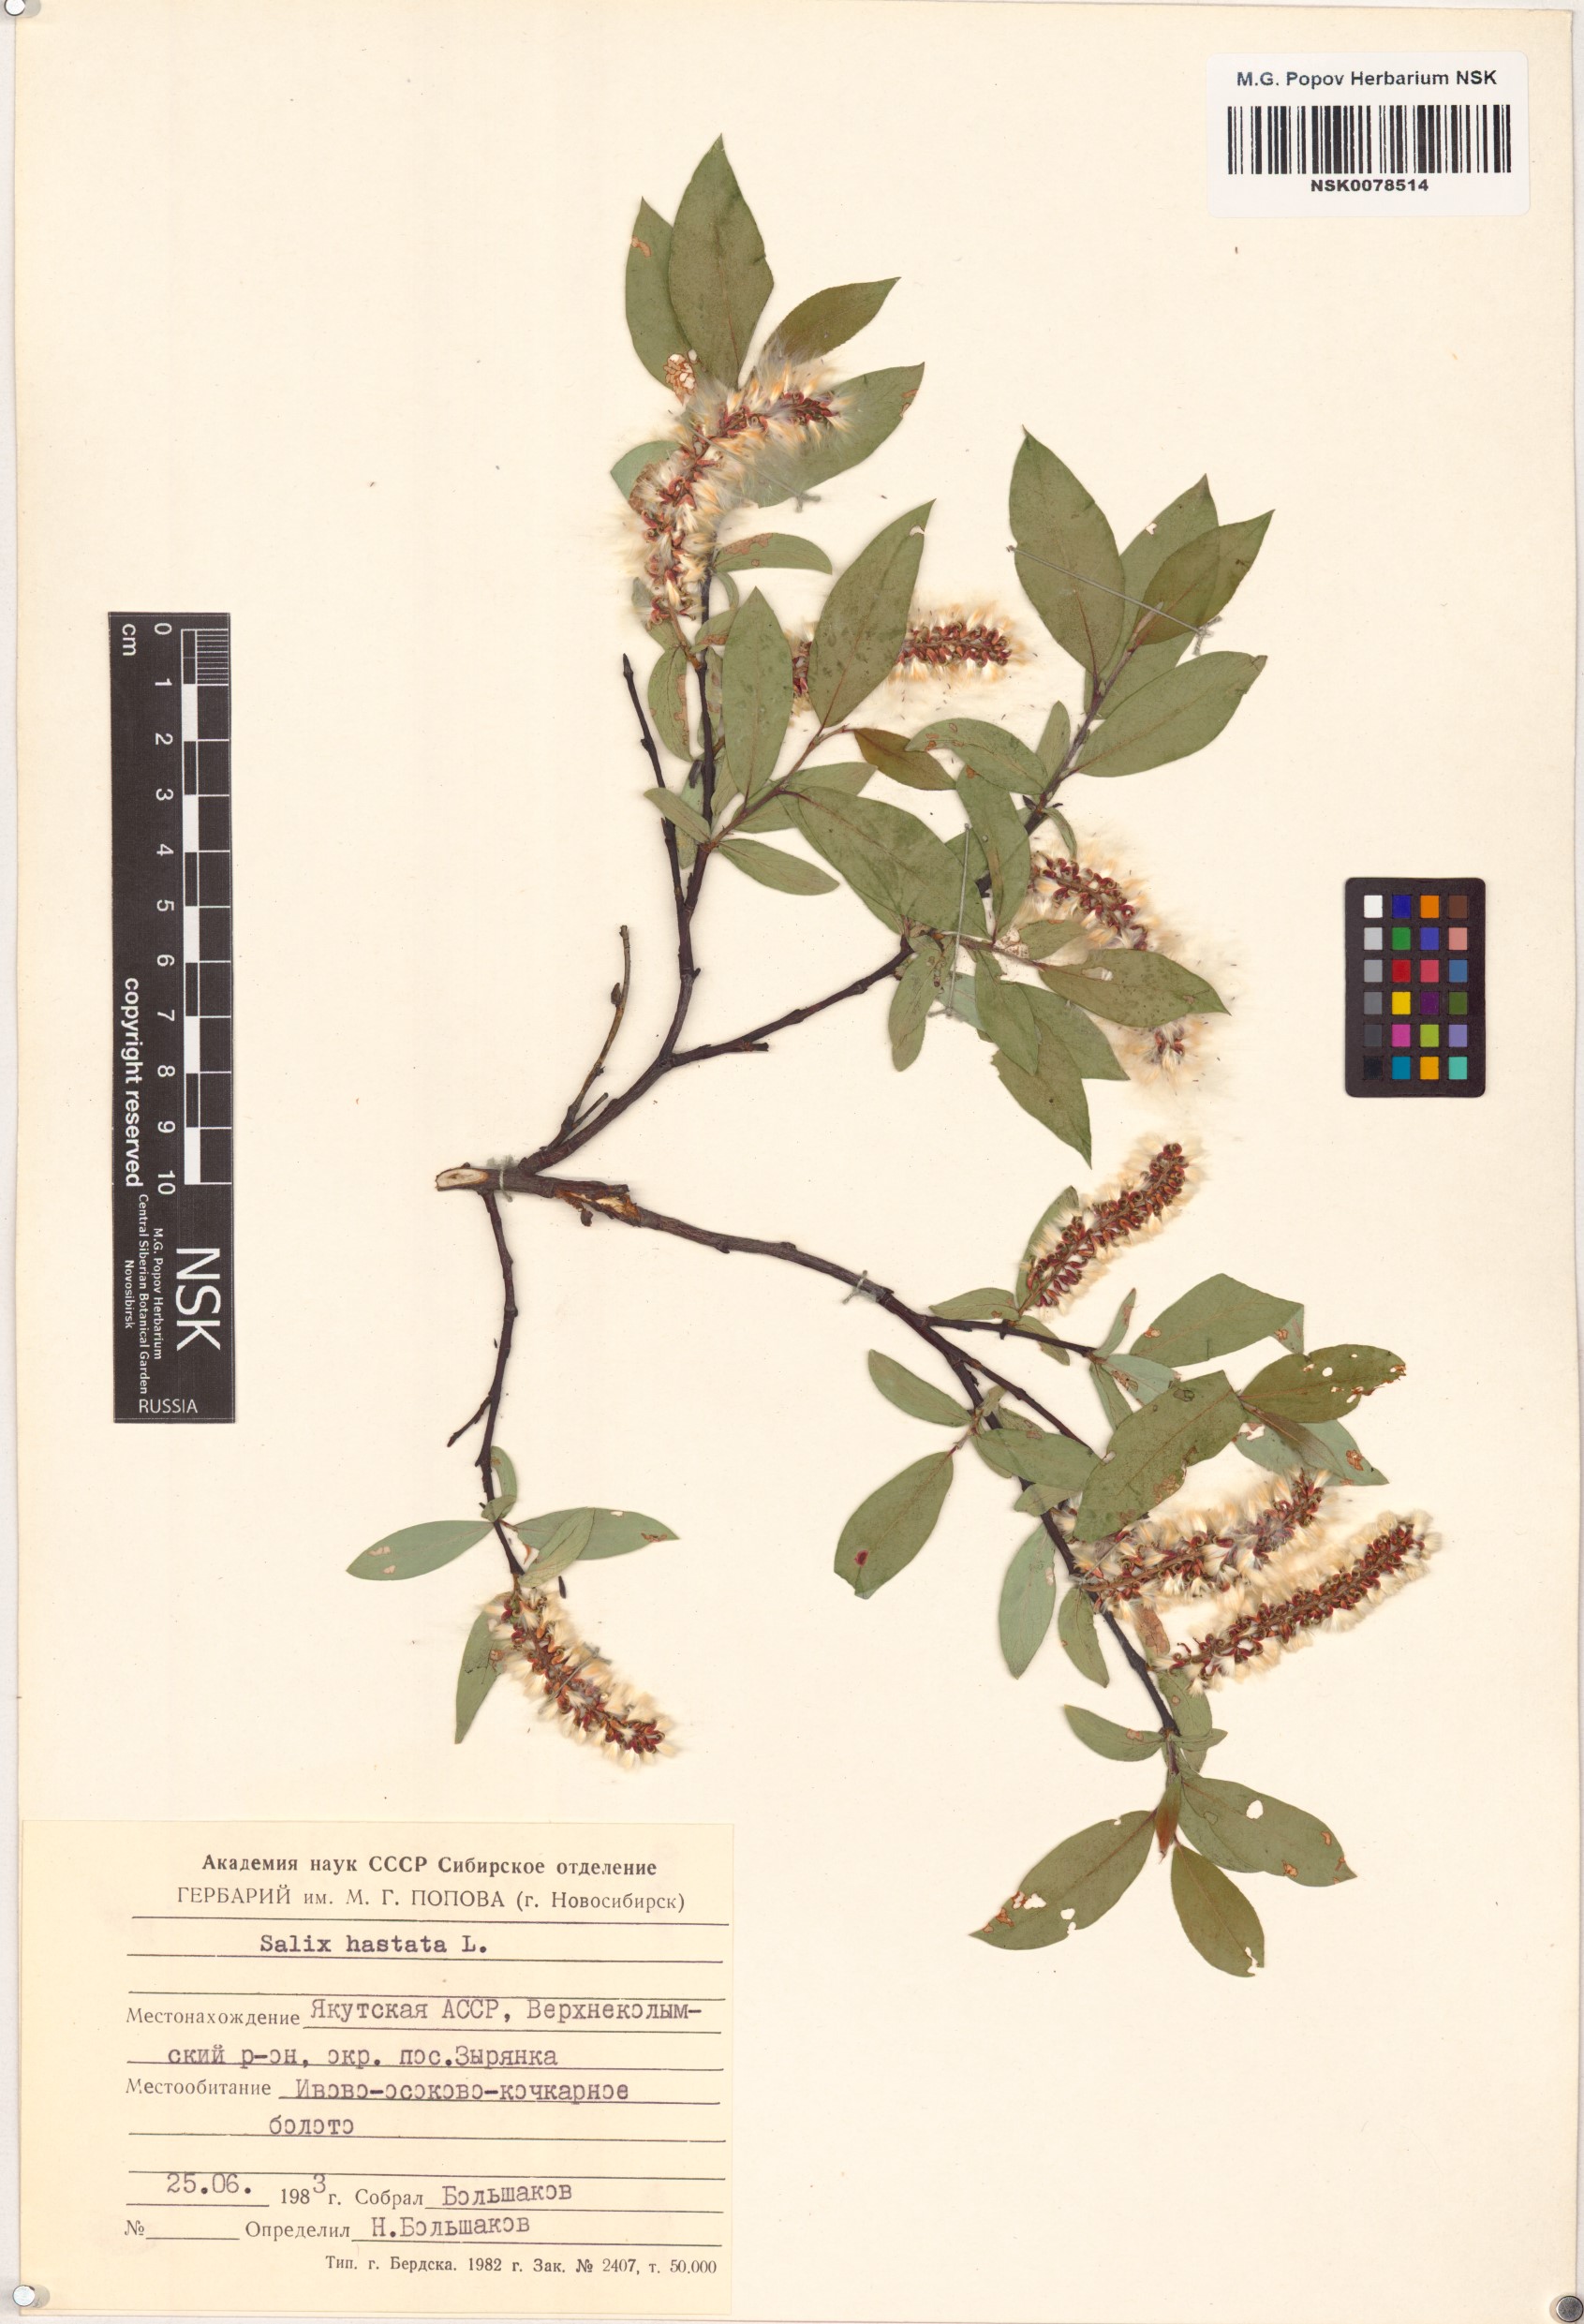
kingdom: Plantae
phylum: Tracheophyta
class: Magnoliopsida
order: Malpighiales
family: Salicaceae
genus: Salix
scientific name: Salix hastata
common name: Halberd willow
